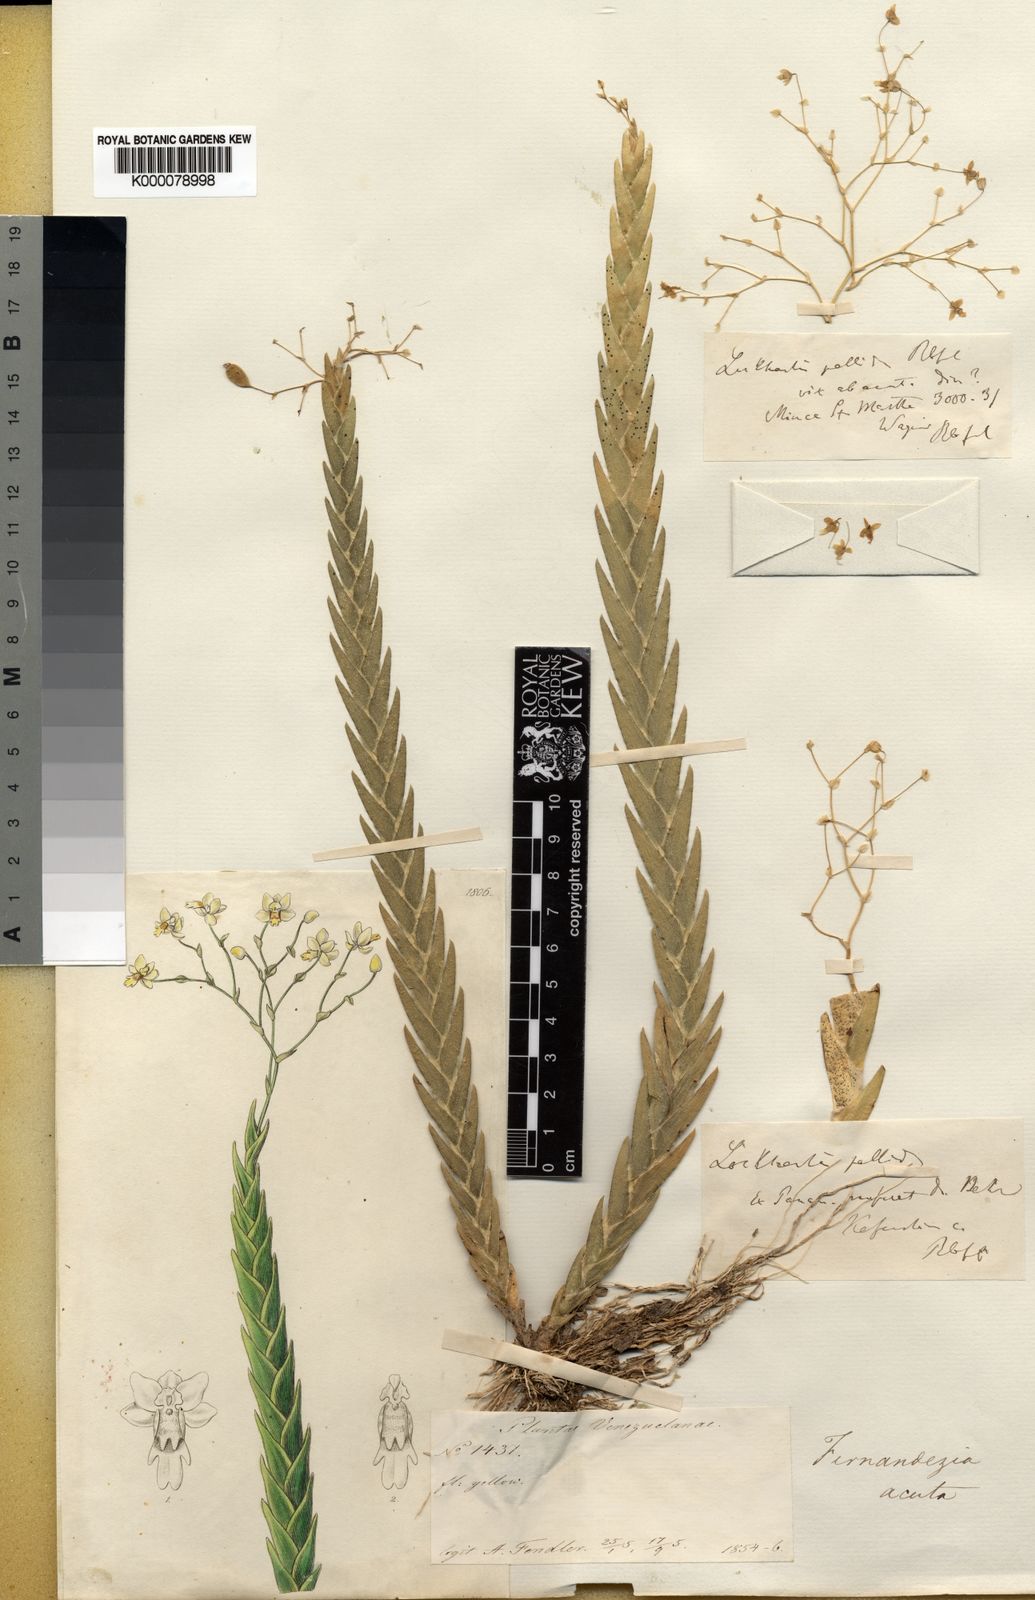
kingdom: Plantae
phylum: Tracheophyta
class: Liliopsida
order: Asparagales
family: Orchidaceae
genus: Lockhartia
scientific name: Lockhartia acuta
